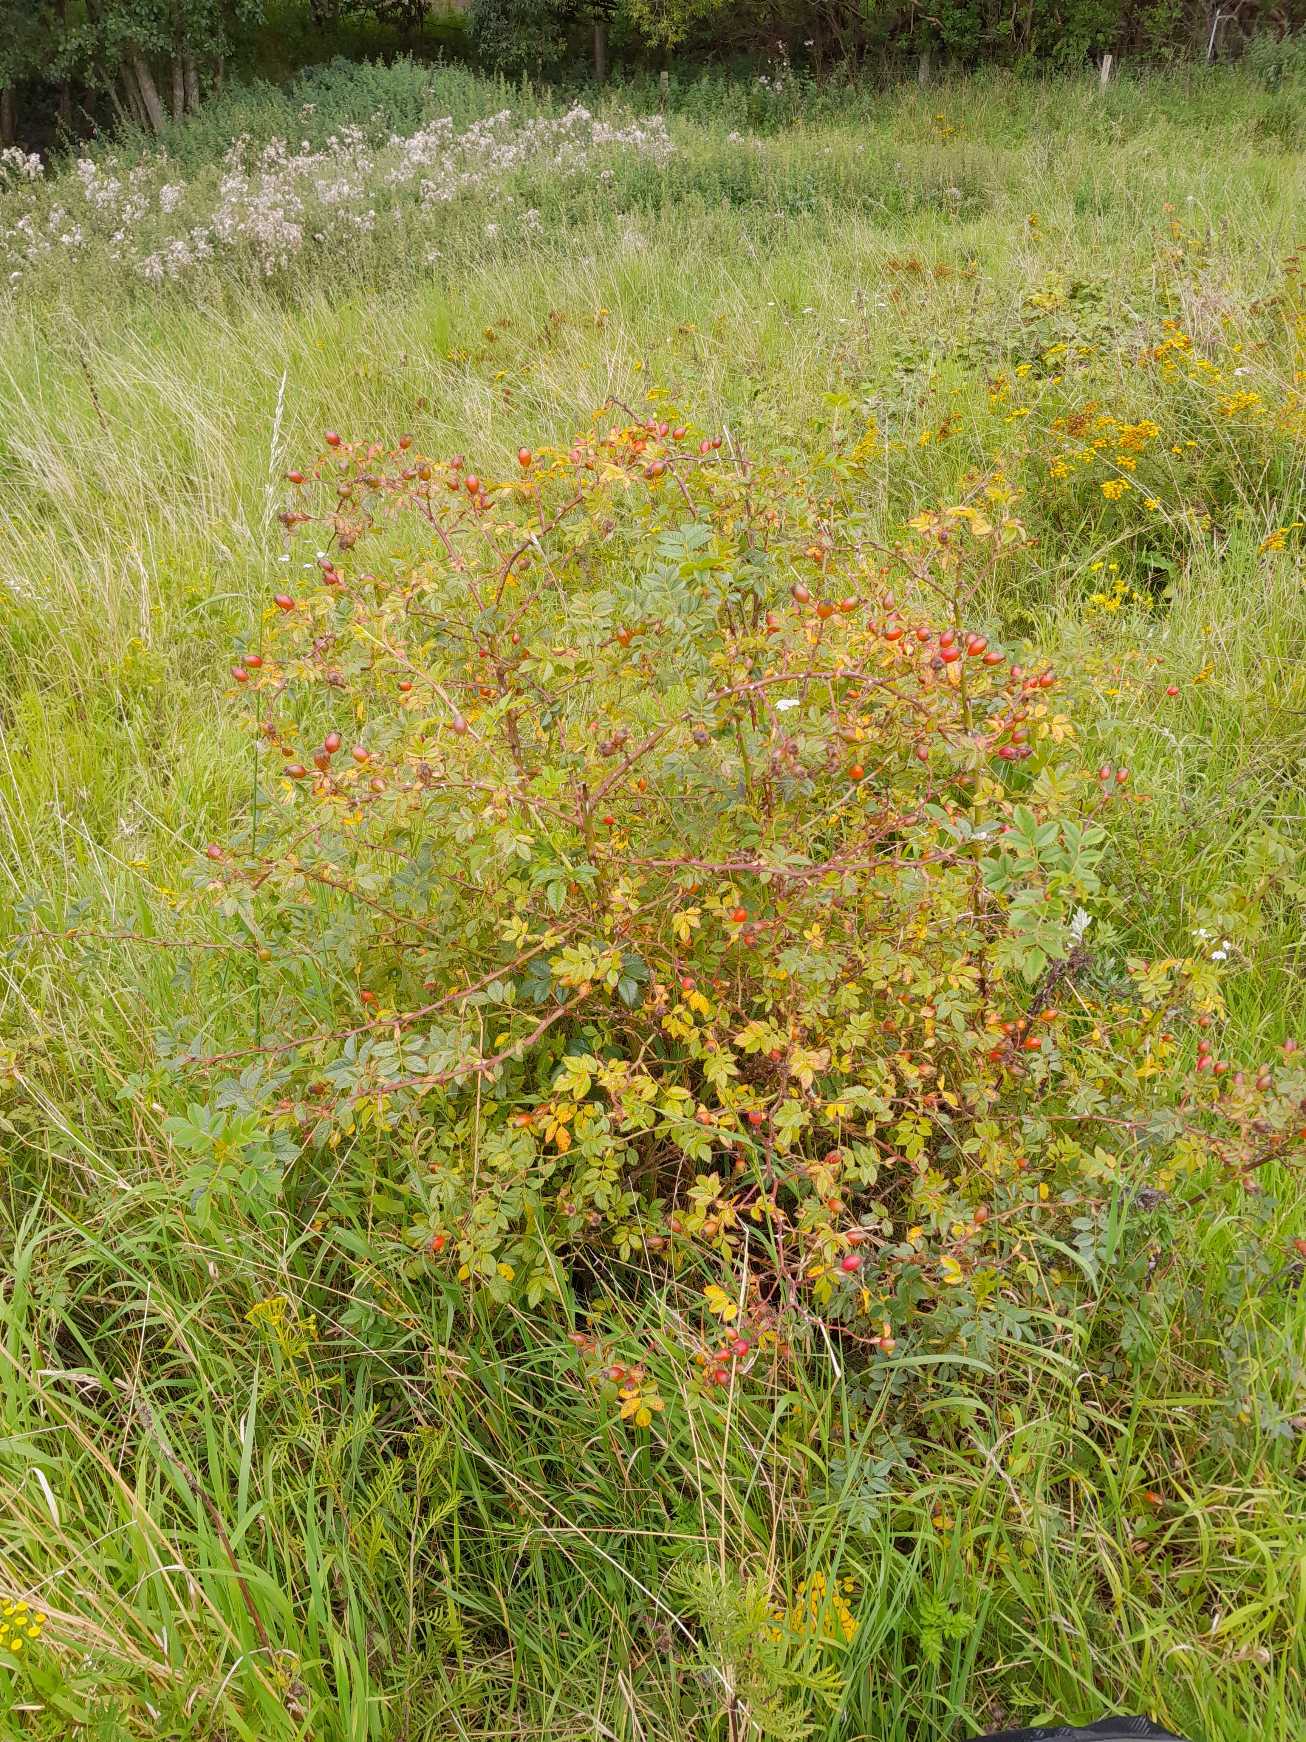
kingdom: Plantae
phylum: Tracheophyta
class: Magnoliopsida
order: Rosales
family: Rosaceae
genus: Rosa
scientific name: Rosa balsamica
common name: Rubladet rose
